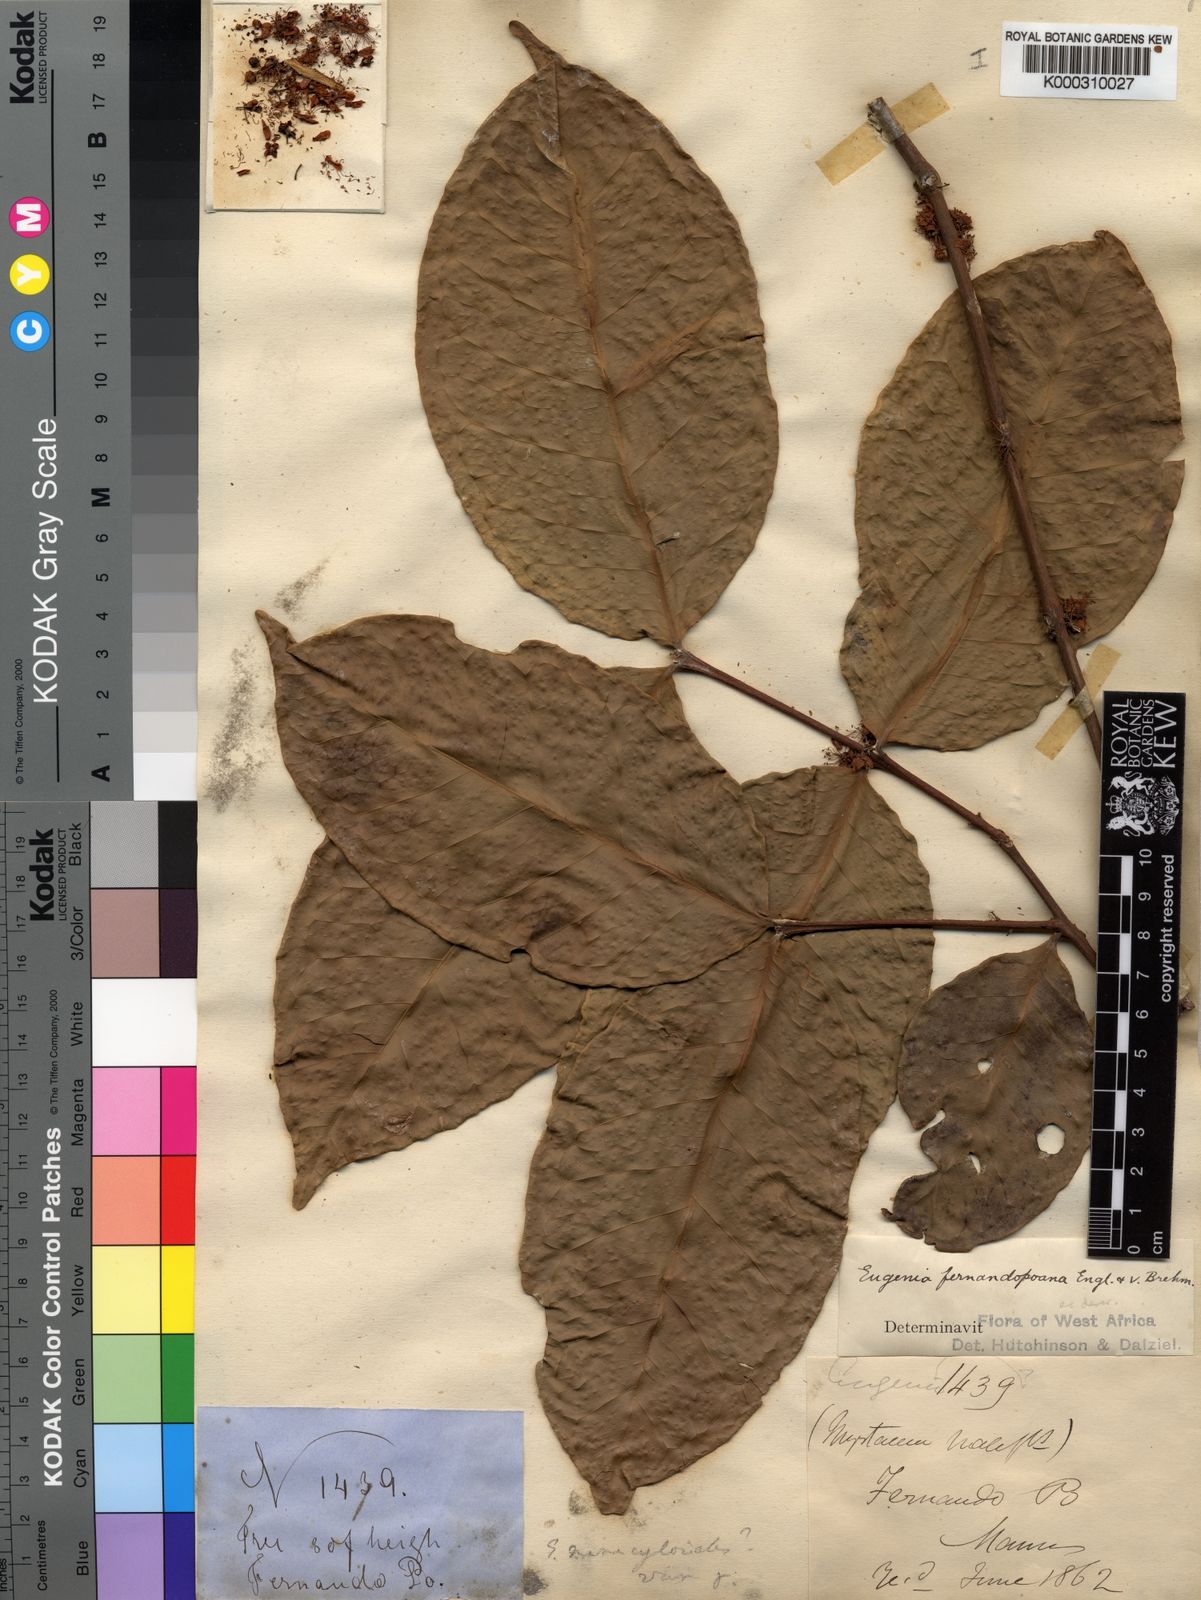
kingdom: Plantae
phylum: Tracheophyta
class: Magnoliopsida
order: Myrtales
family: Myrtaceae
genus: Eugenia
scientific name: Eugenia fernandopoana
